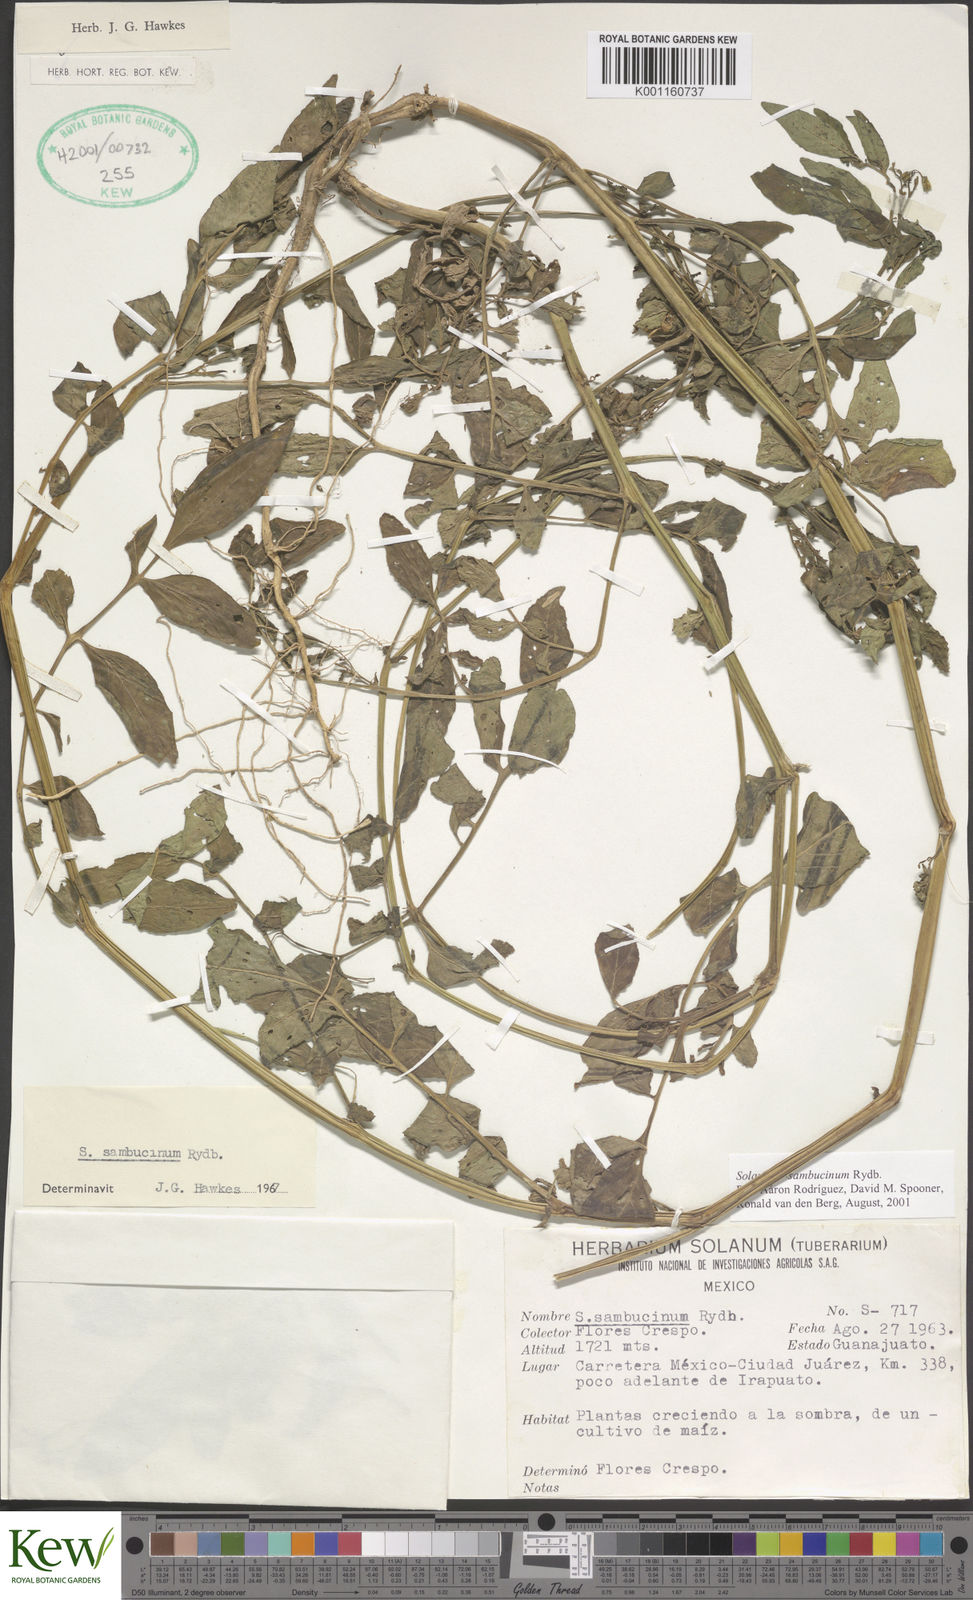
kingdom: Plantae
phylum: Tracheophyta
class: Magnoliopsida
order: Solanales
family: Solanaceae
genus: Solanum
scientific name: Solanum sambucinum
